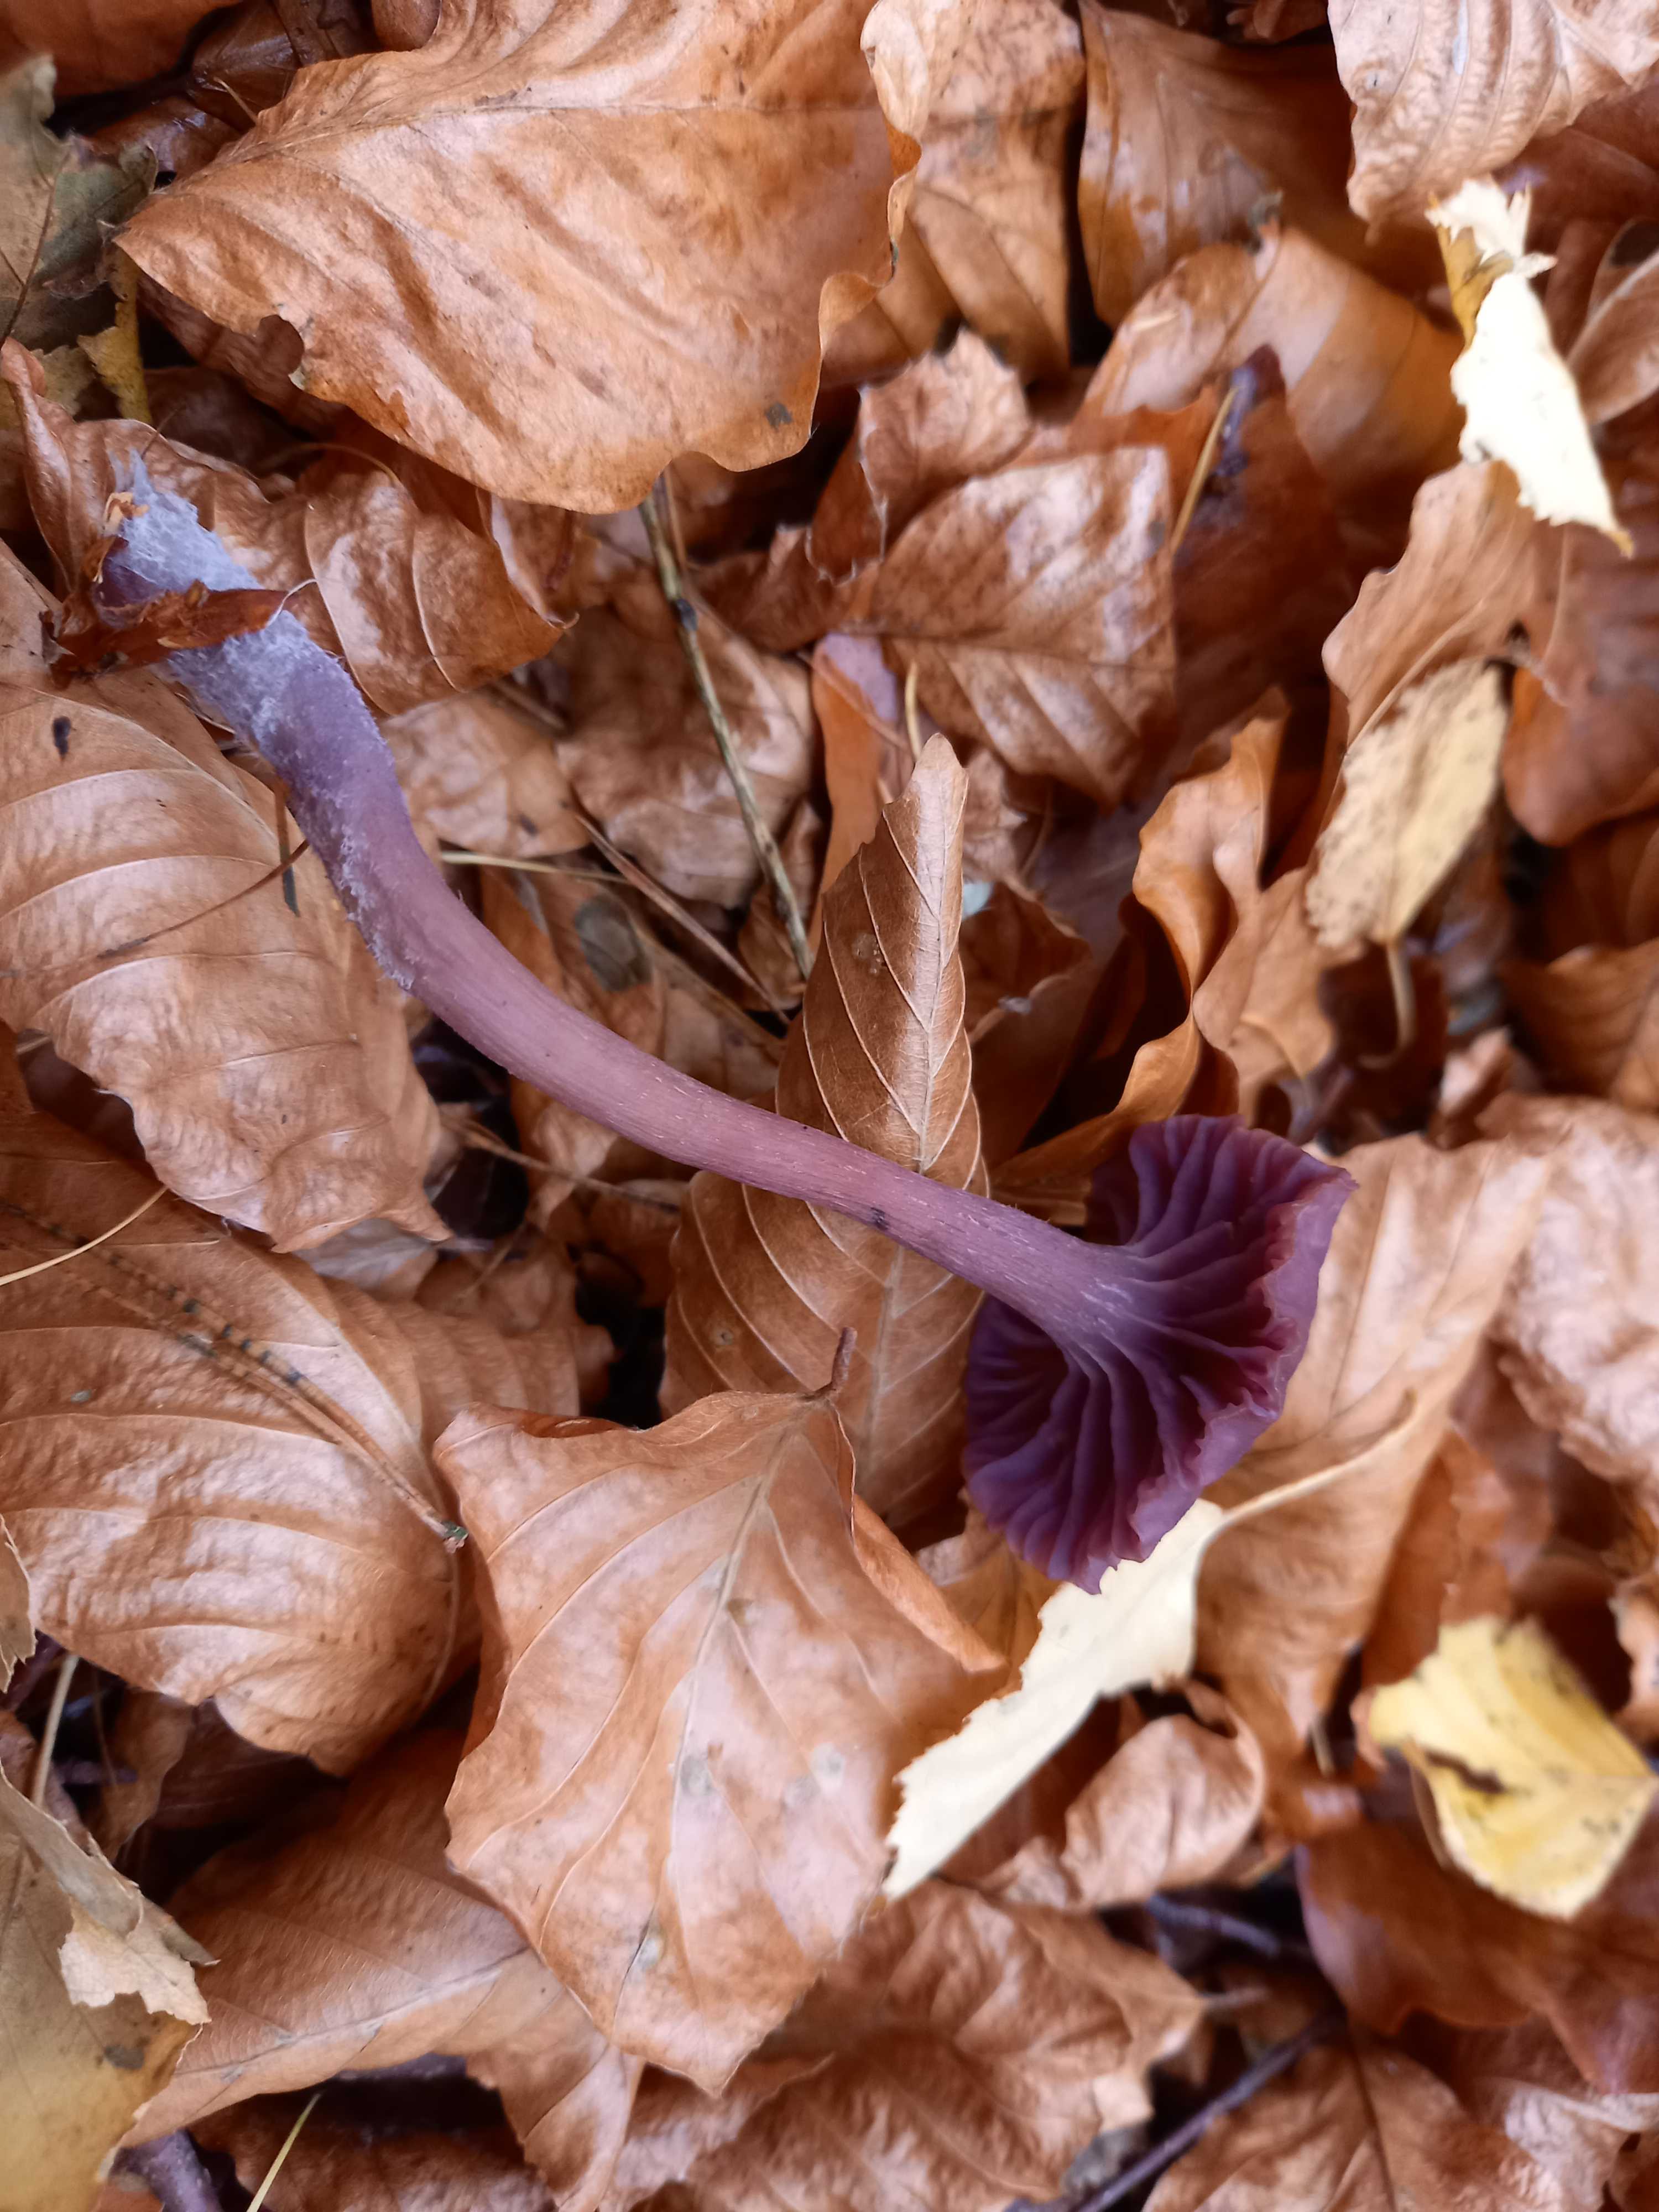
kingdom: Fungi
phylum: Basidiomycota
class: Agaricomycetes
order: Agaricales
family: Hydnangiaceae
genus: Laccaria
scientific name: Laccaria amethystina
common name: violet ametysthat
